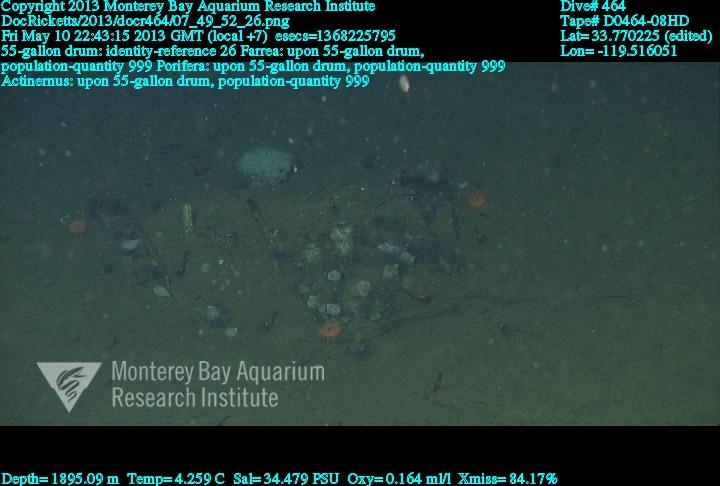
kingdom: Animalia
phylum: Porifera
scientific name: Porifera
